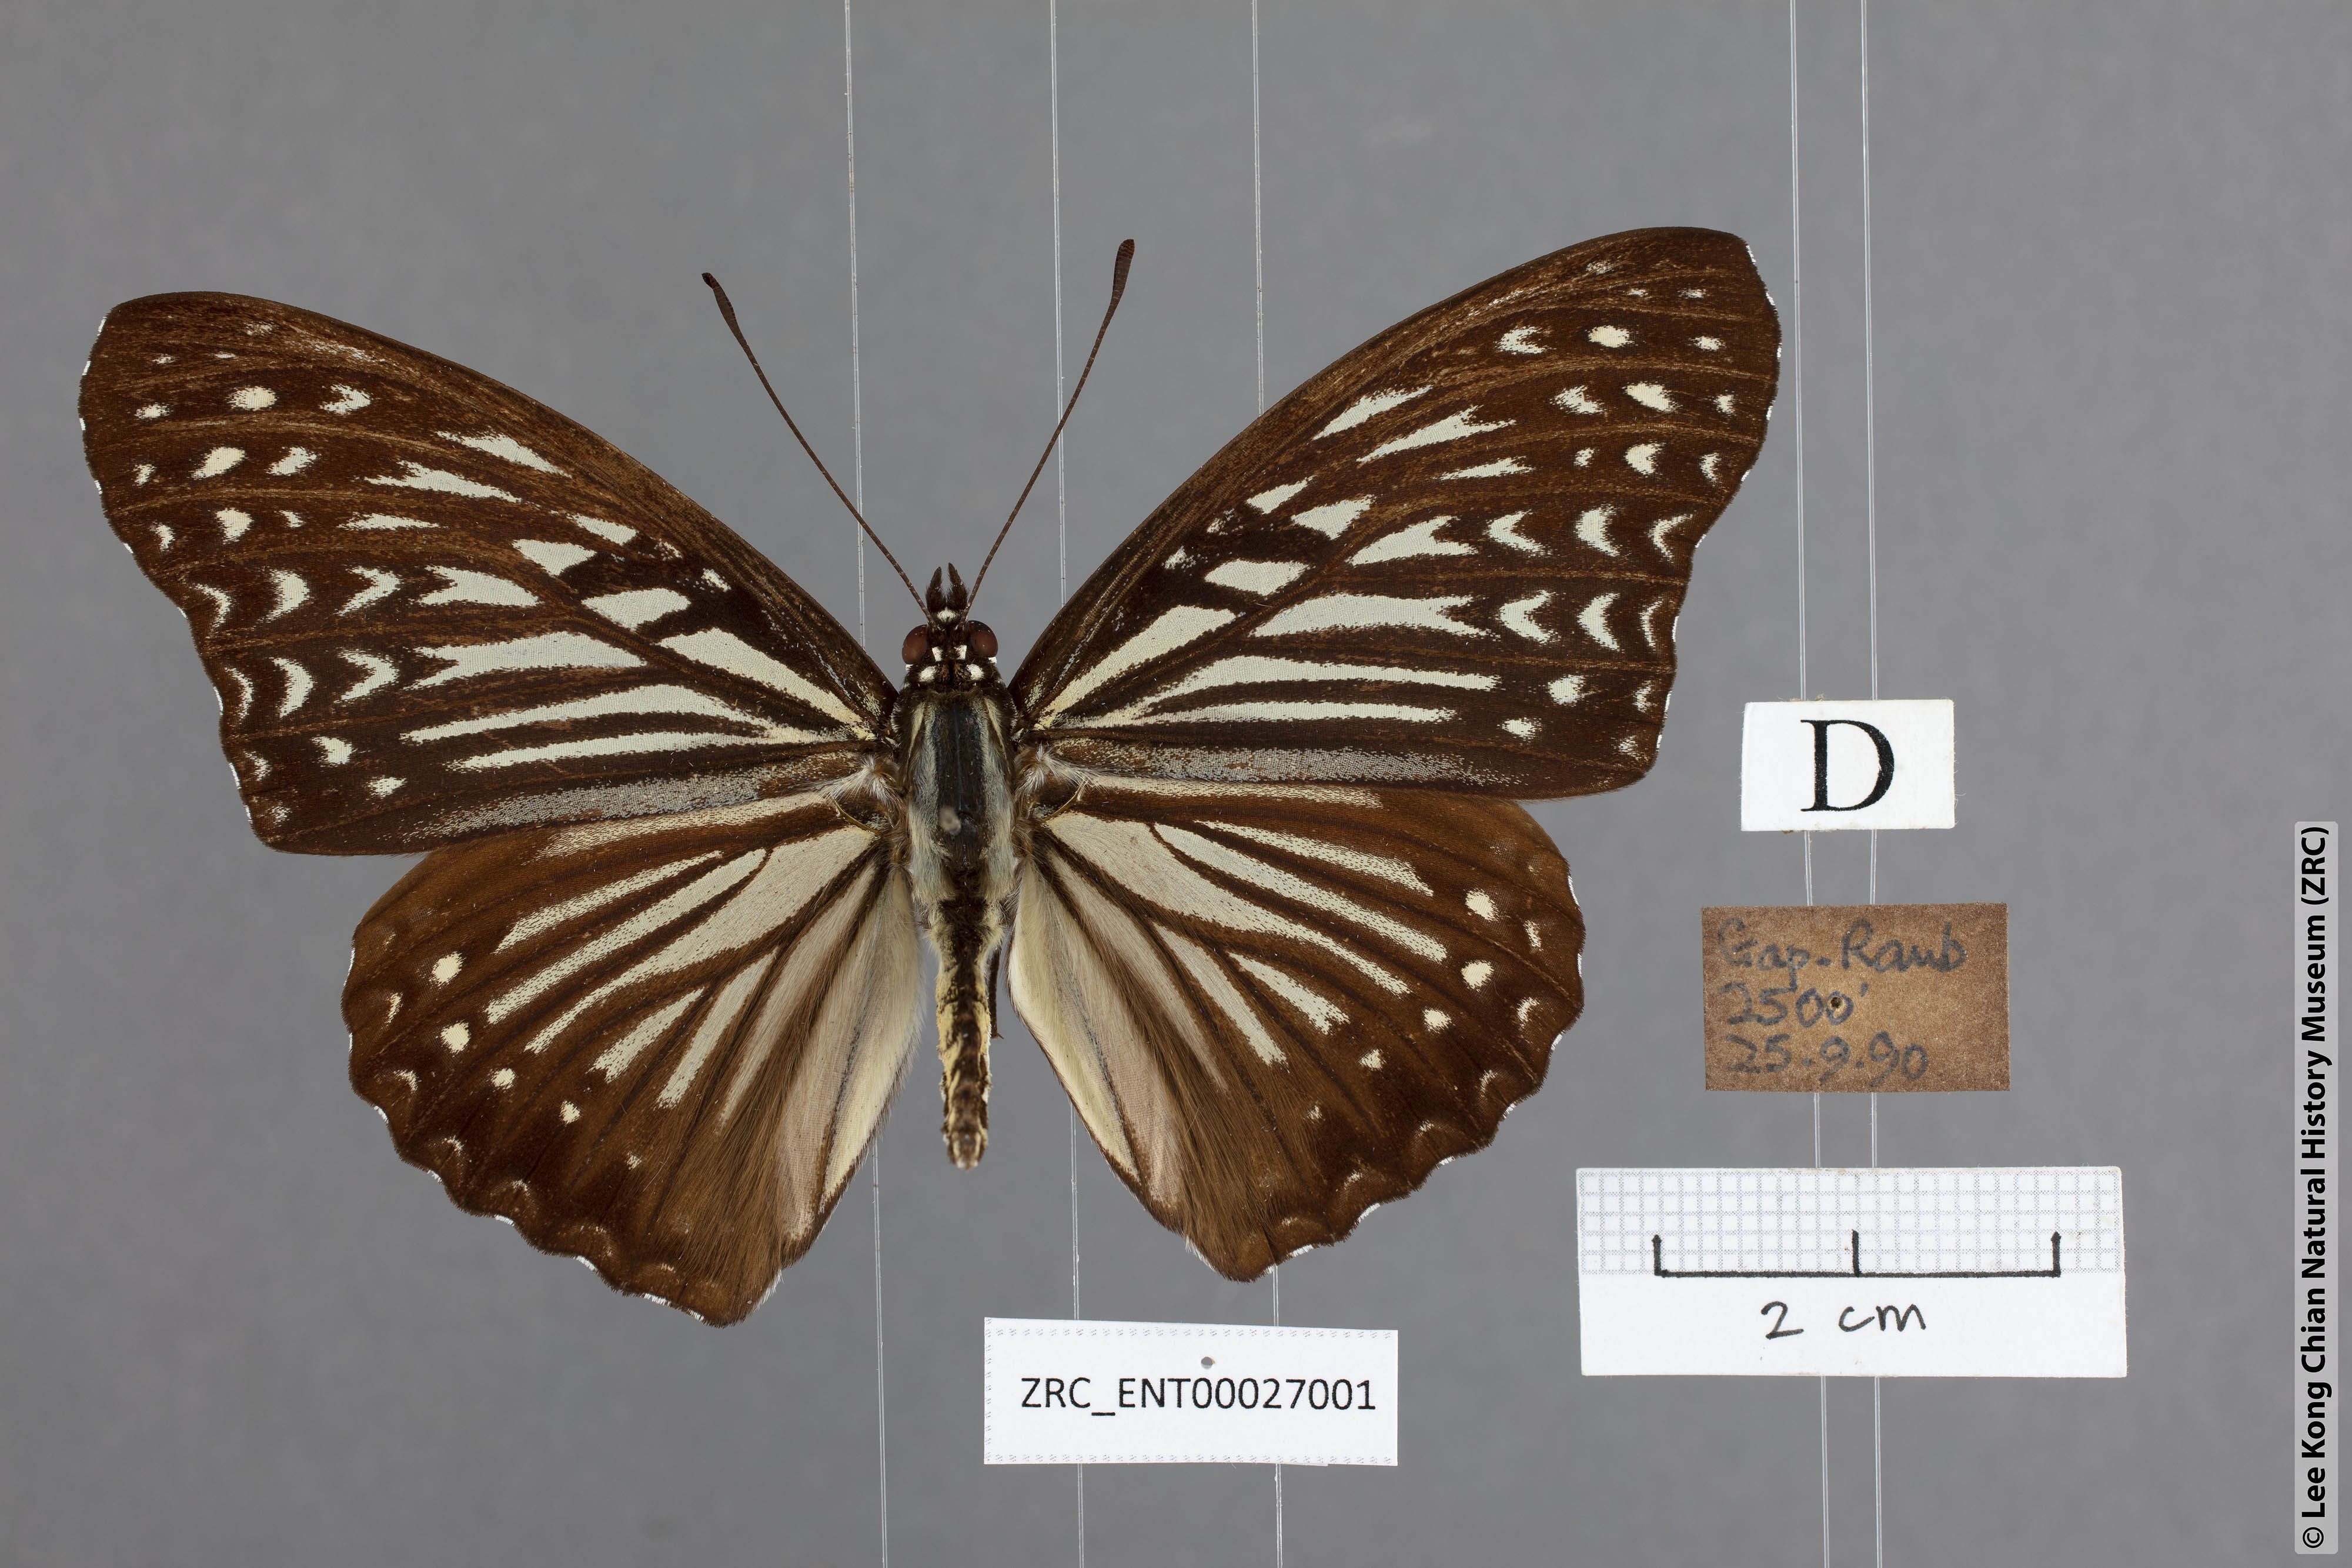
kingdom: Animalia
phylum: Arthropoda
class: Insecta
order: Lepidoptera
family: Nymphalidae
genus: Hestinalis
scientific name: Hestinalis mimetica
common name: Malayan circe
